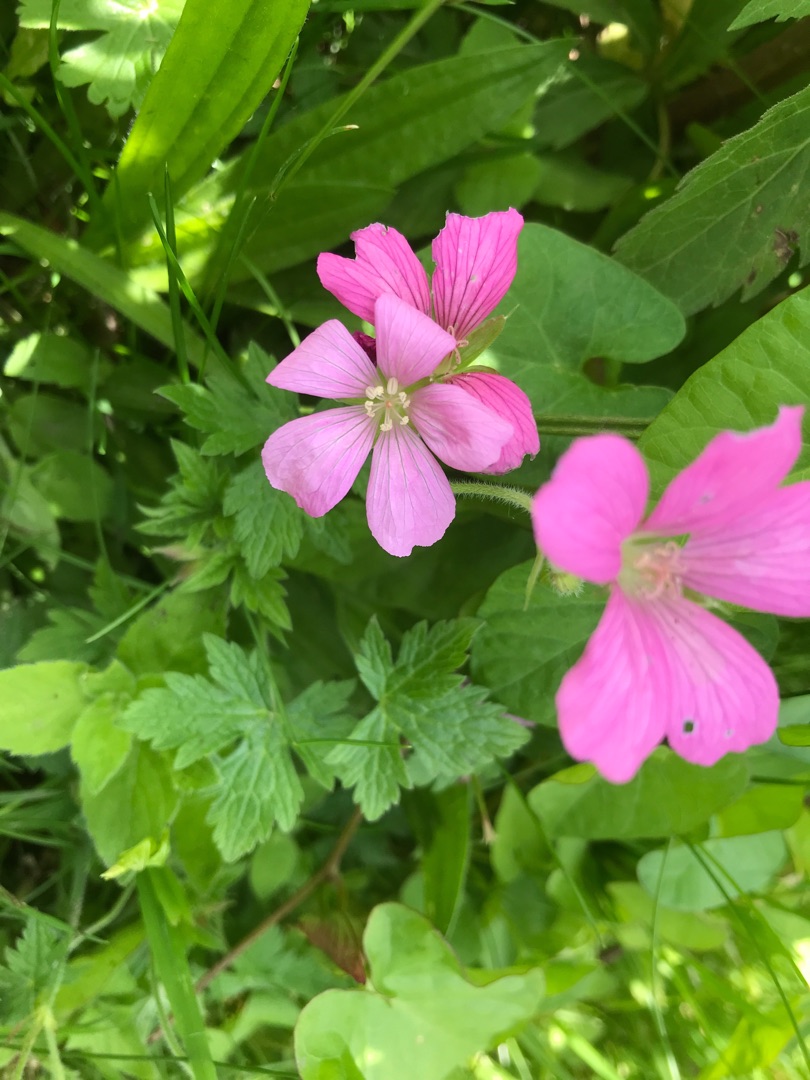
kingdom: Plantae
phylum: Tracheophyta
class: Magnoliopsida
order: Geraniales
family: Geraniaceae
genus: Geranium
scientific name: Geranium endressii
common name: Spansk storkenæb
